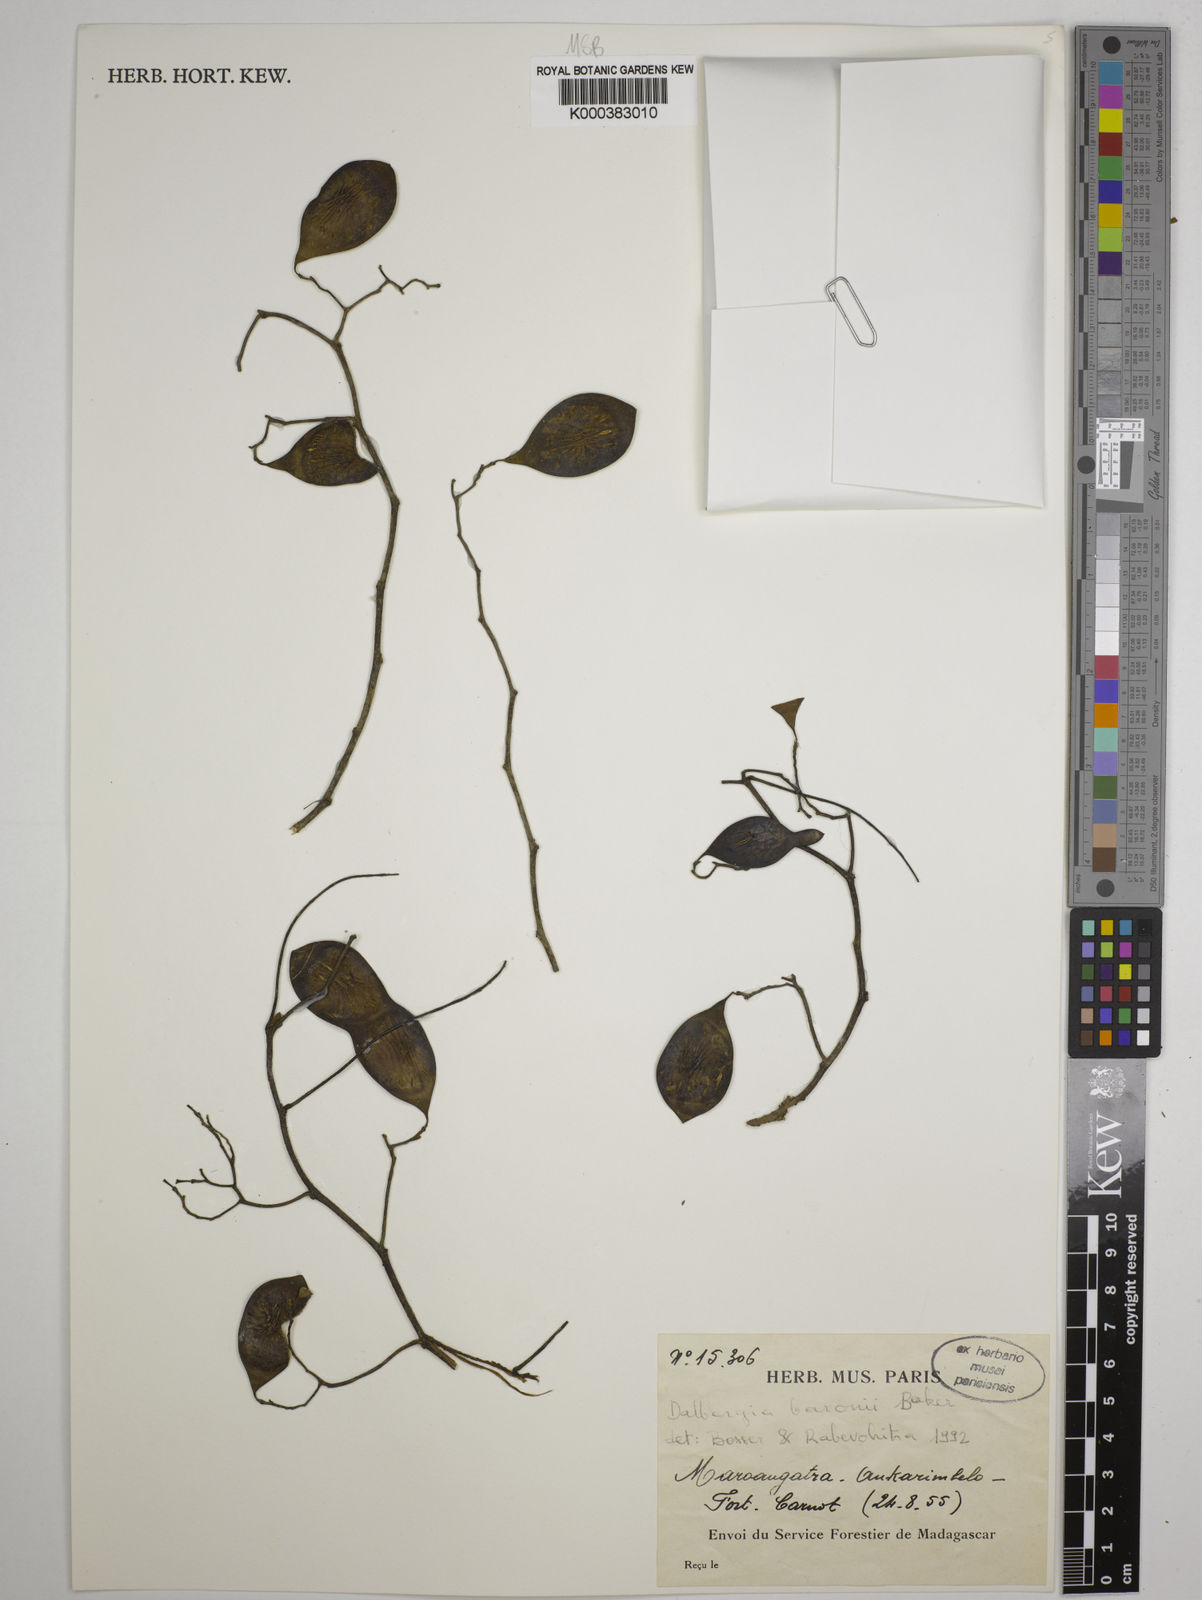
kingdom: Plantae
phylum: Tracheophyta
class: Magnoliopsida
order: Fabales
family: Fabaceae
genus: Dalbergia
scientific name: Dalbergia baronii
